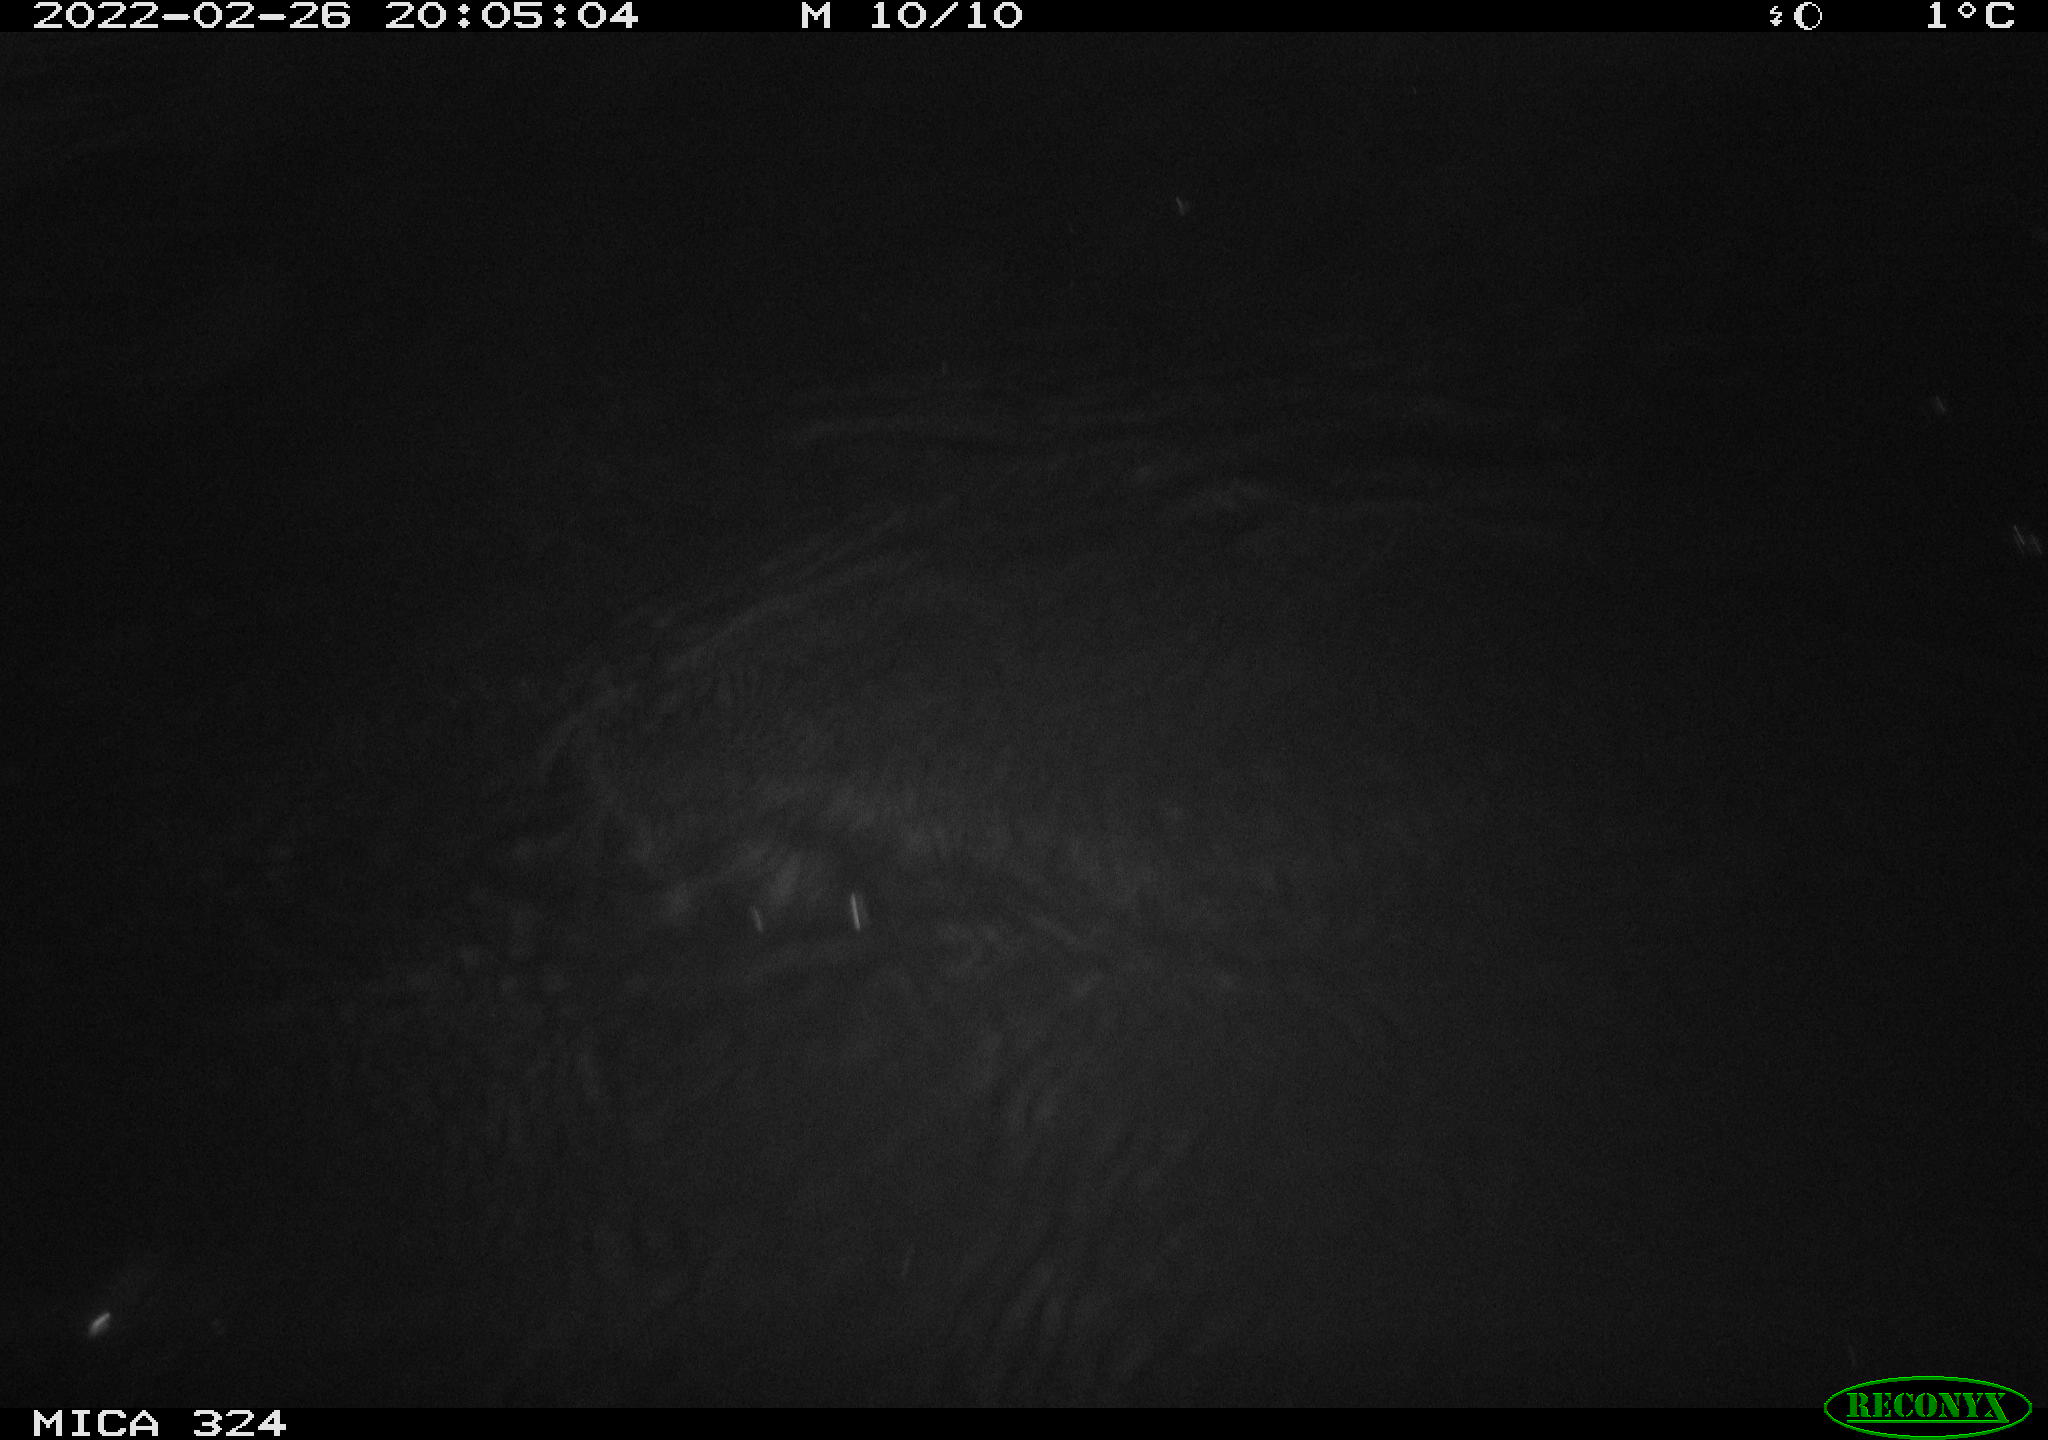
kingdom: Animalia
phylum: Chordata
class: Mammalia
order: Rodentia
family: Cricetidae
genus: Ondatra
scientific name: Ondatra zibethicus
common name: Muskrat
